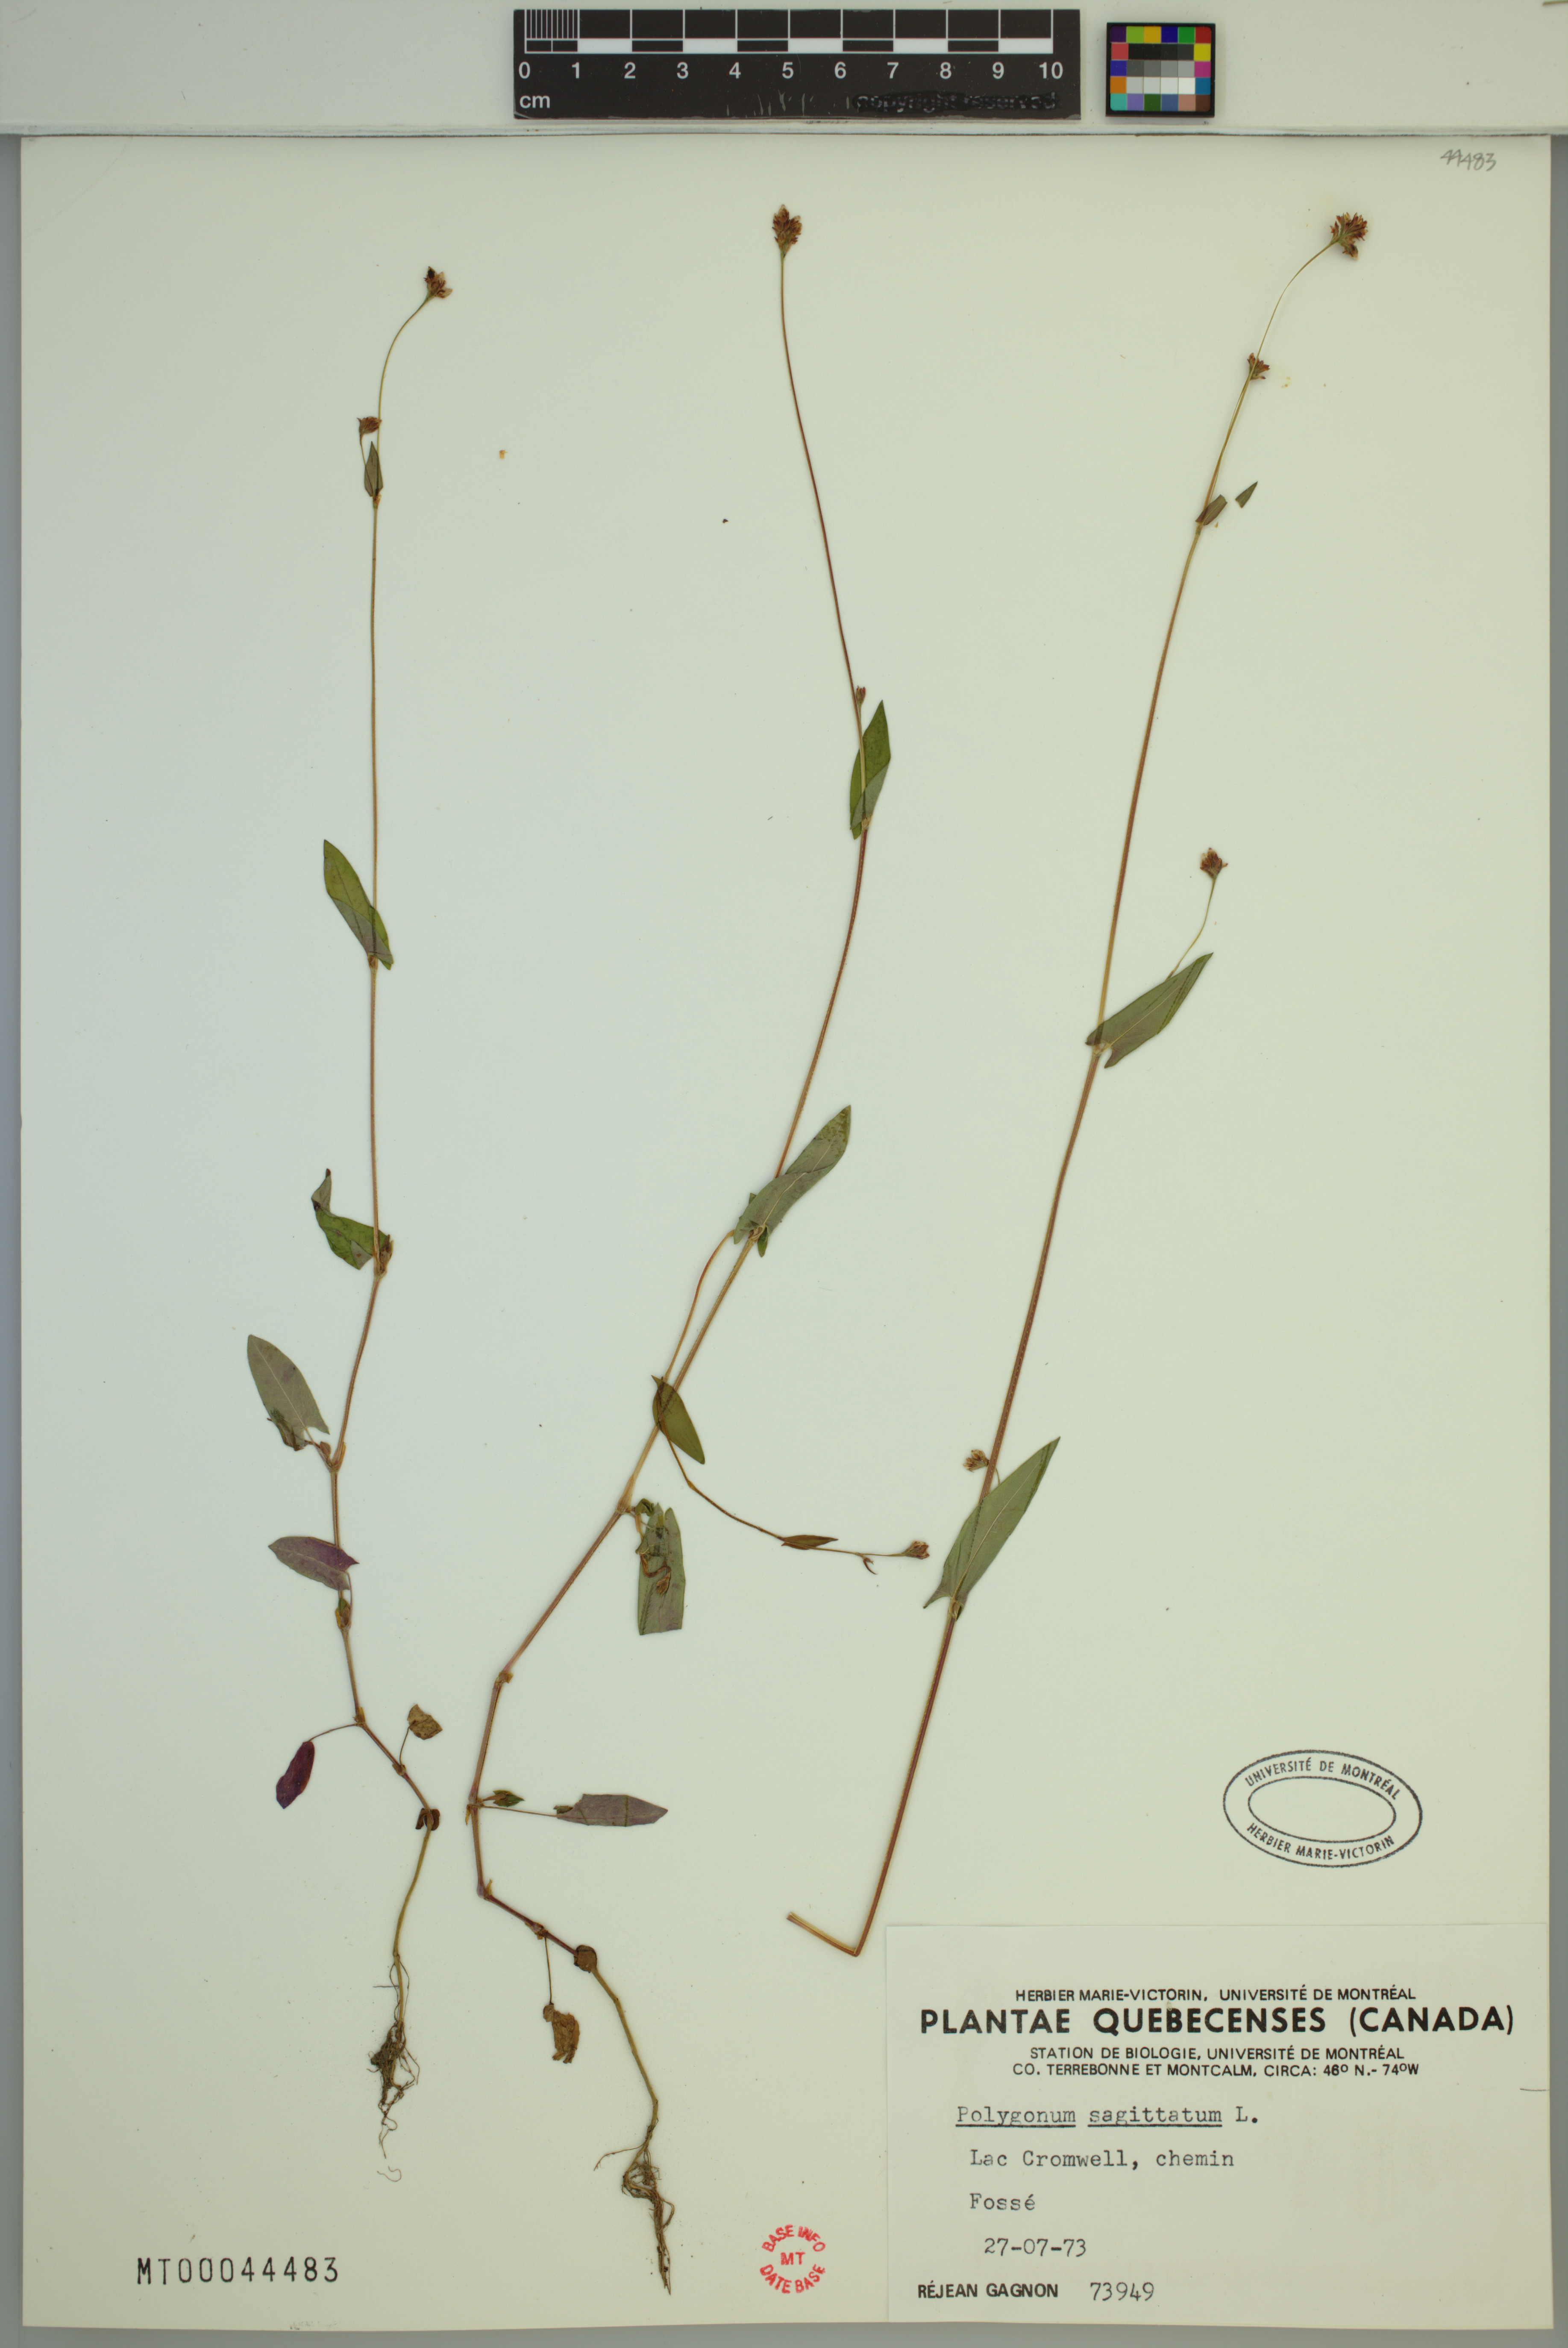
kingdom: Plantae
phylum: Tracheophyta
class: Magnoliopsida
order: Caryophyllales
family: Polygonaceae
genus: Persicaria
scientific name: Persicaria sagittata
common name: American tearthumb
